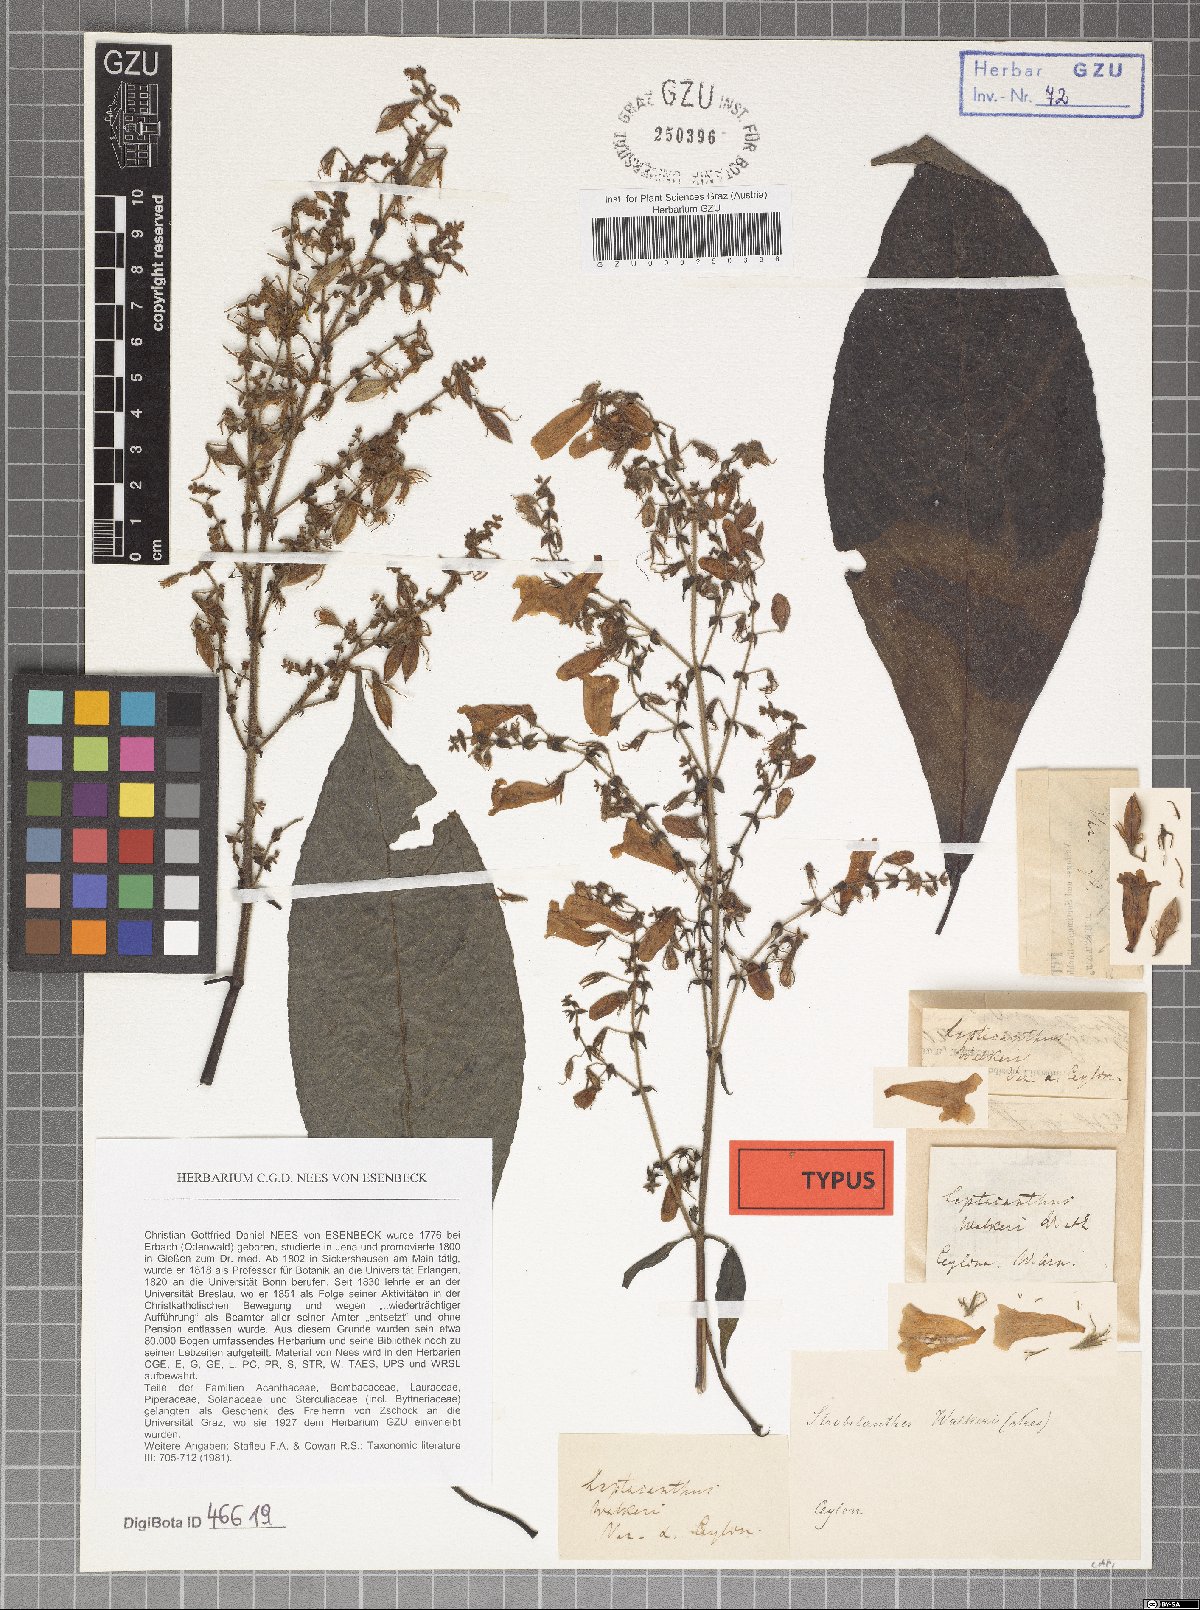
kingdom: Plantae
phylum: Tracheophyta
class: Magnoliopsida
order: Lamiales
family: Acanthaceae
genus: Strobilanthes
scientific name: Strobilanthes walkeri
